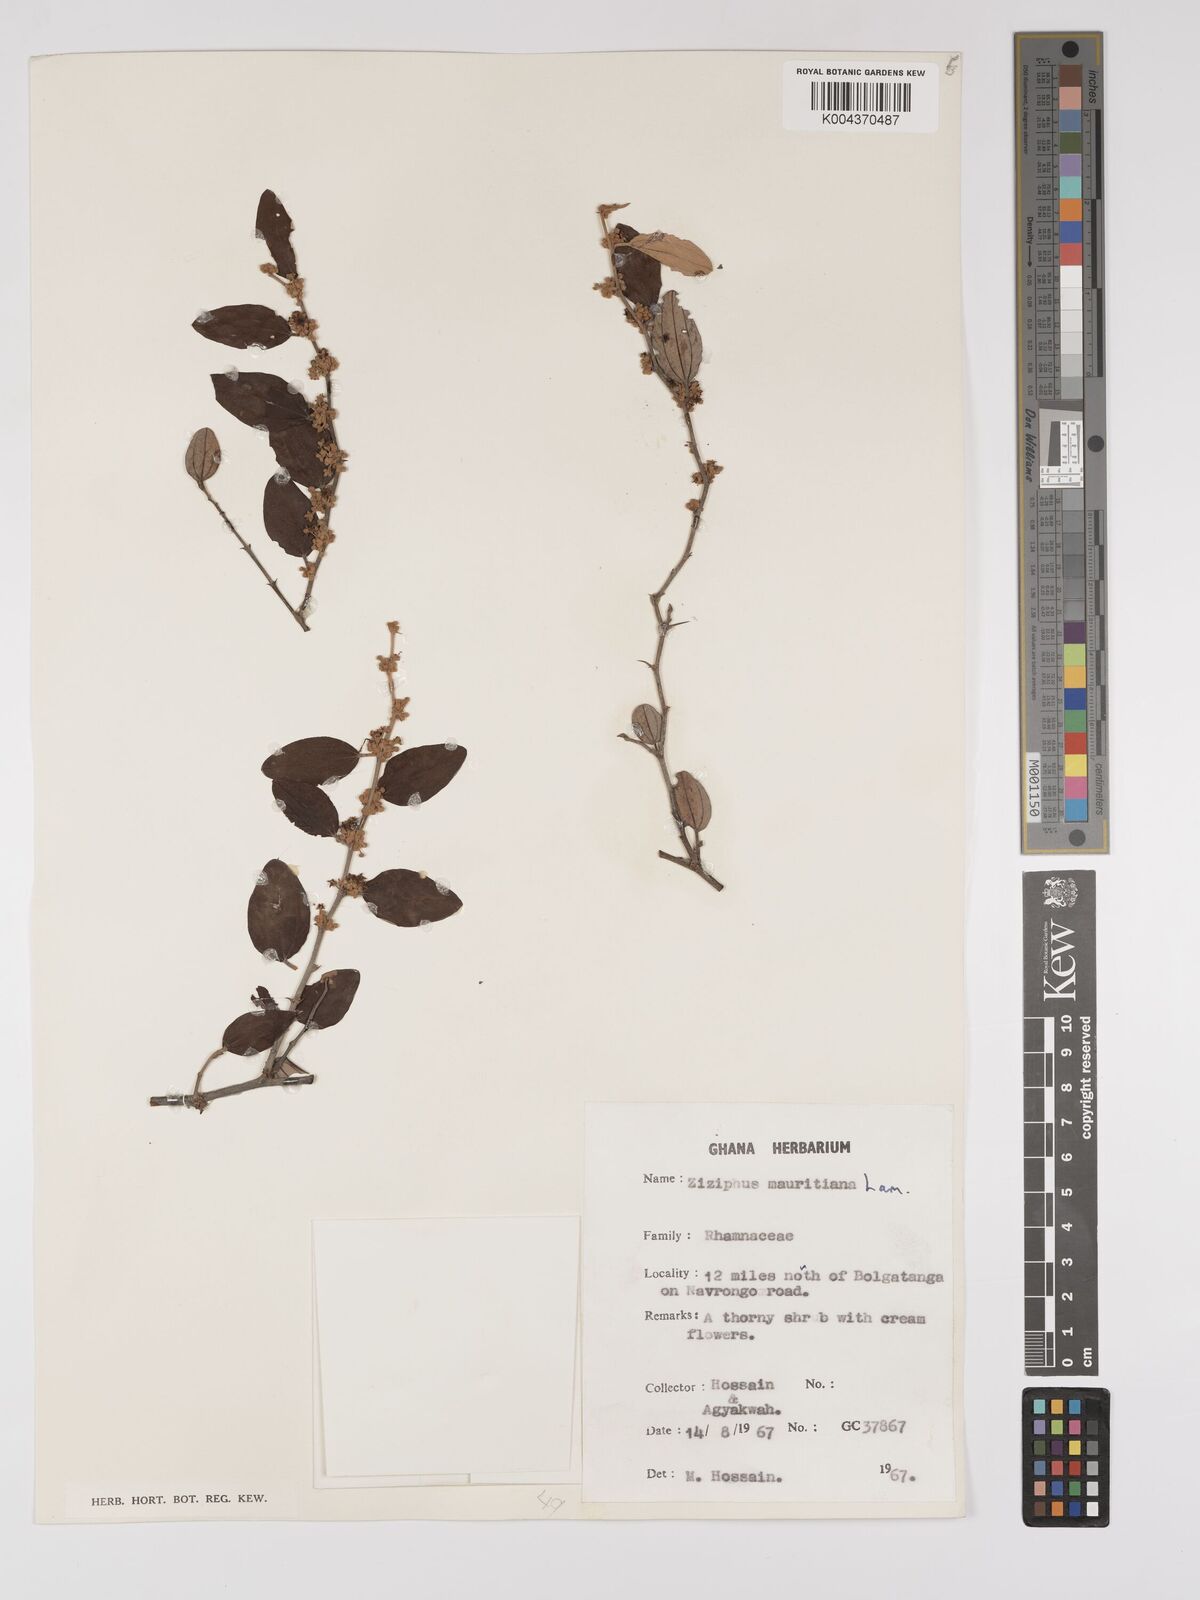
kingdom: Plantae
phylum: Tracheophyta
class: Magnoliopsida
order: Rosales
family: Rhamnaceae
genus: Ziziphus
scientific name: Ziziphus mauritiana
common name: Indian jujube
